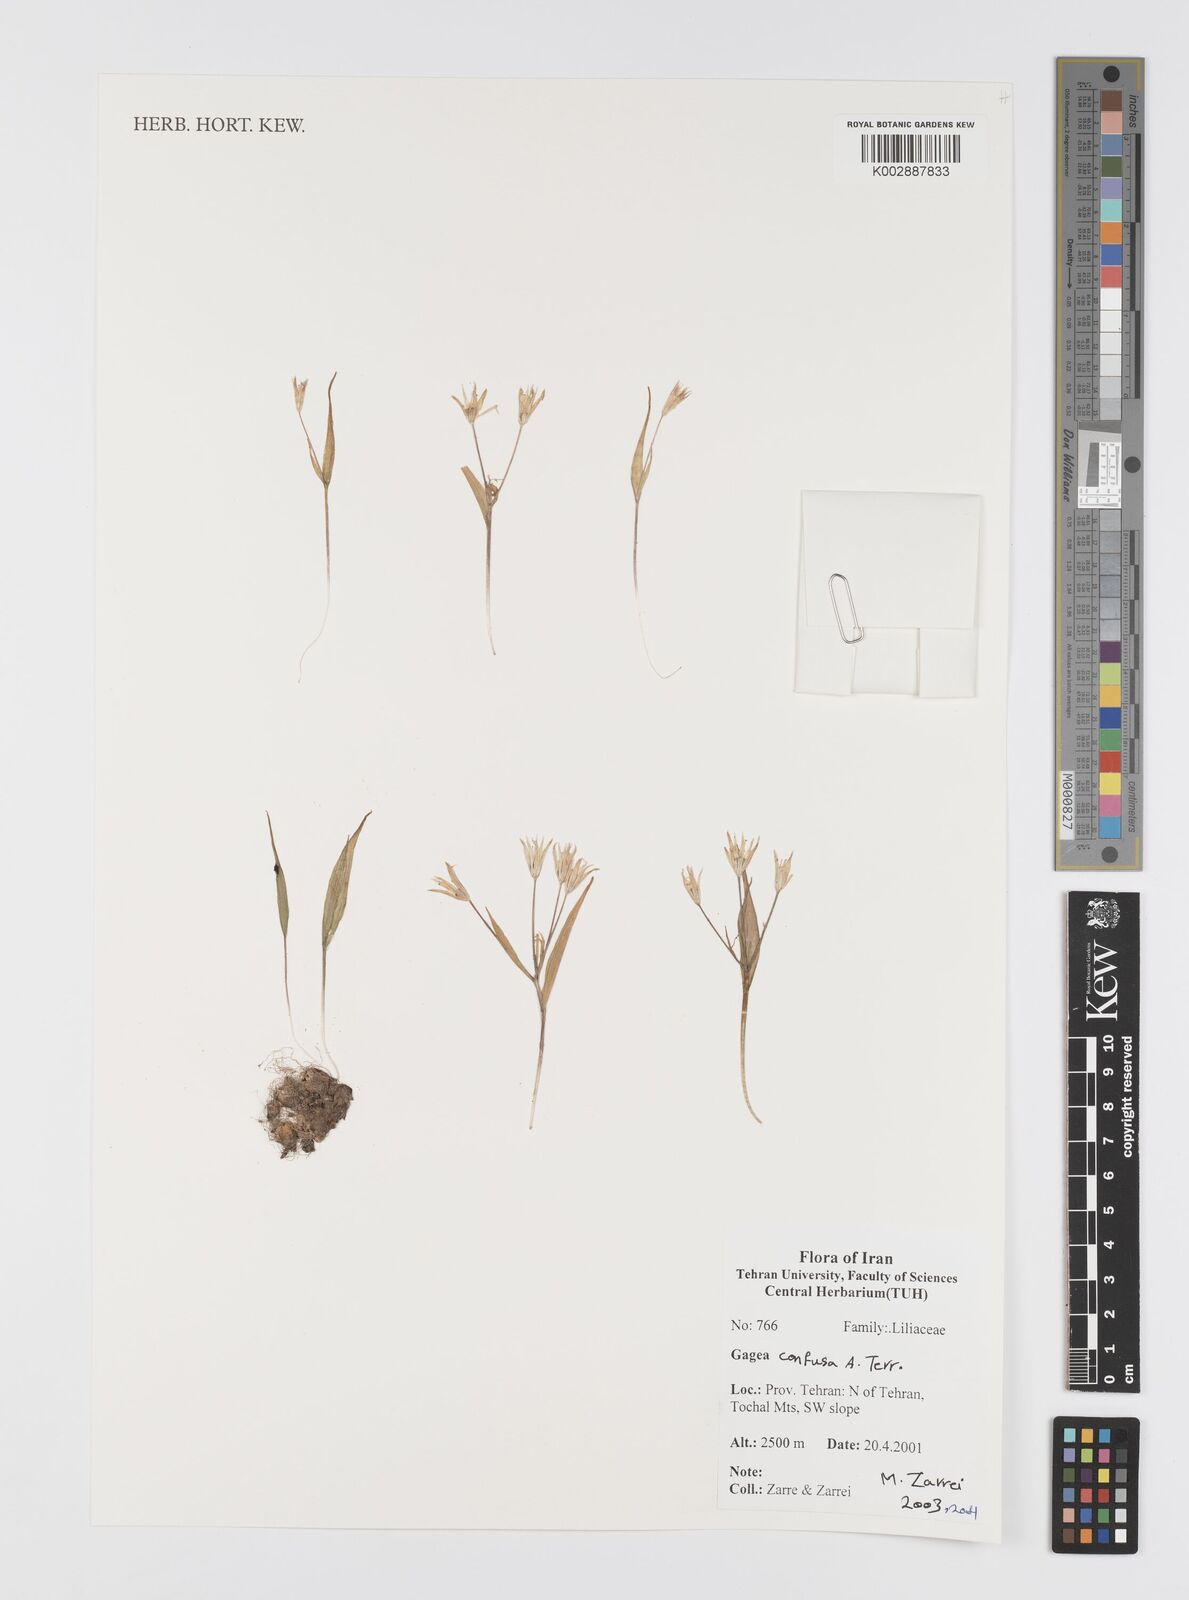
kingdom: Plantae
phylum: Tracheophyta
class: Liliopsida
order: Liliales
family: Liliaceae
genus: Gagea
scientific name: Gagea confusa
